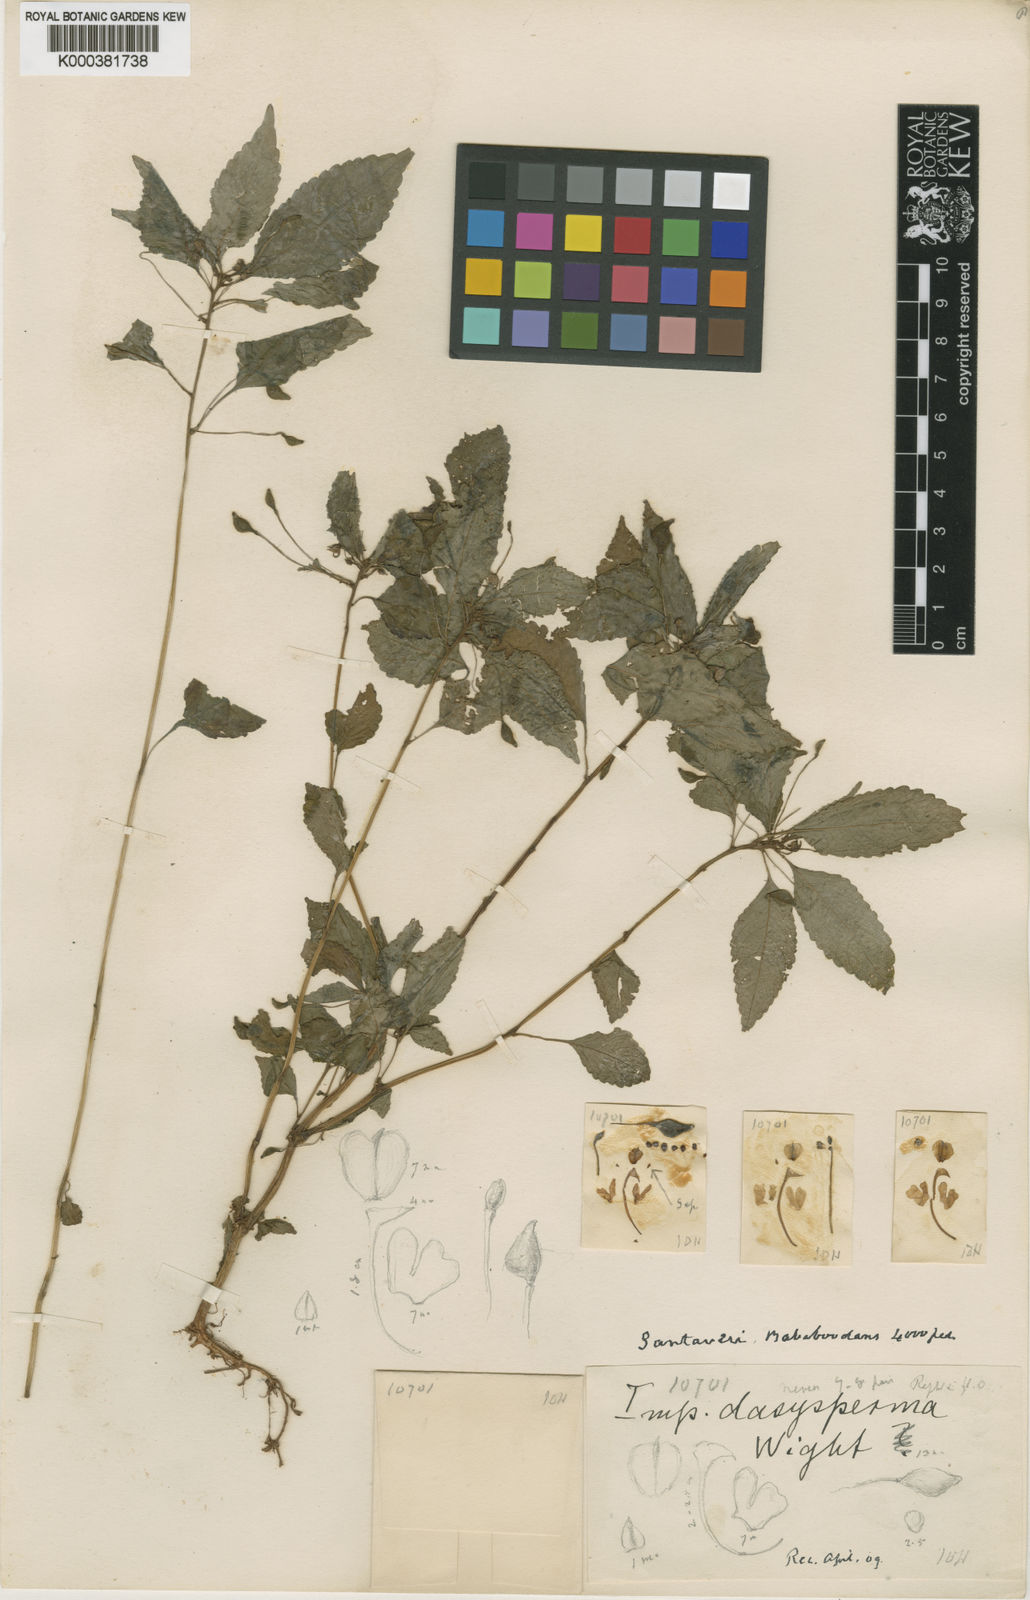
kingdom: Plantae
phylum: Tracheophyta
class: Magnoliopsida
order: Ericales
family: Balsaminaceae
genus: Impatiens
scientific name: Impatiens dasysperma
